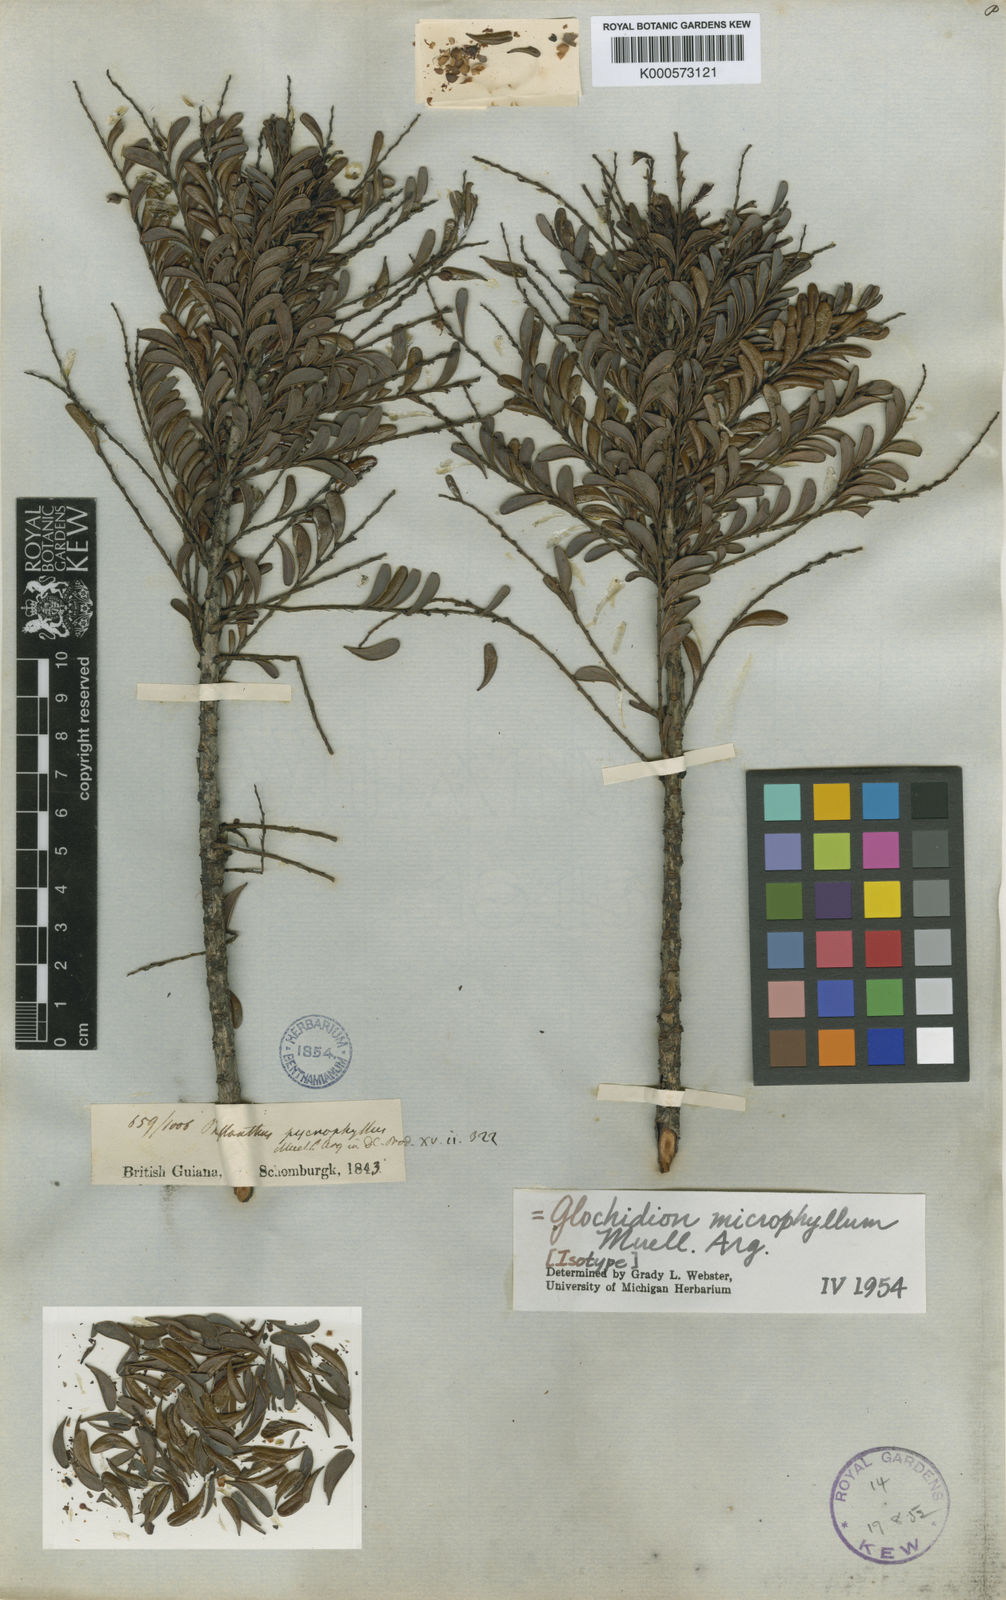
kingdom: Plantae
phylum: Tracheophyta
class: Magnoliopsida
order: Malpighiales
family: Phyllanthaceae
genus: Phyllanthus
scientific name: Phyllanthus
